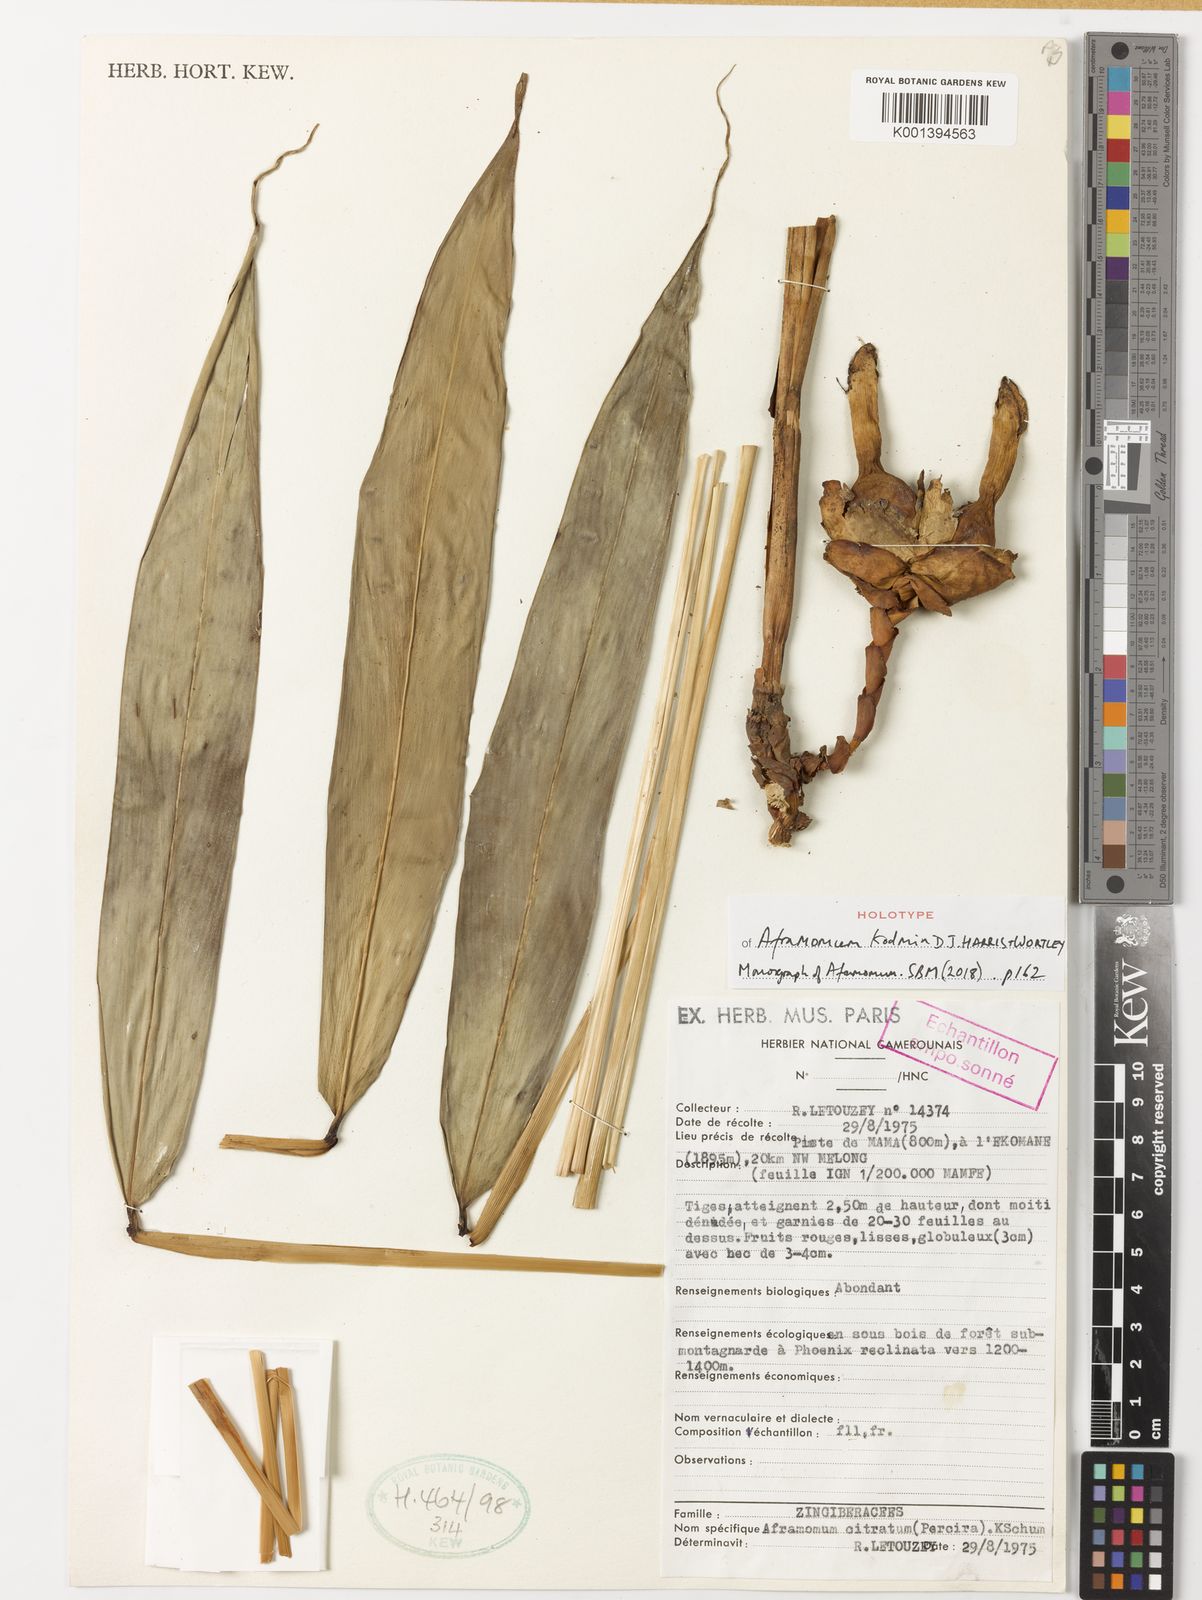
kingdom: Plantae
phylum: Tracheophyta
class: Liliopsida
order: Zingiberales
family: Zingiberaceae
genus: Aframomum
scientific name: Aframomum kodmin
